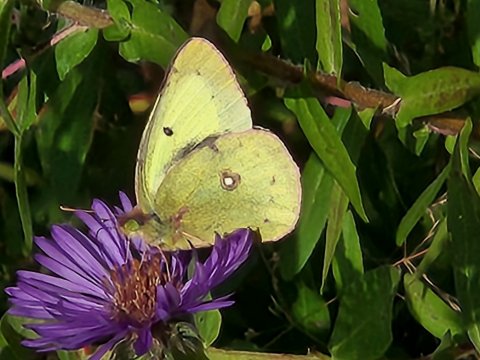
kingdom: Animalia
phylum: Arthropoda
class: Insecta
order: Lepidoptera
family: Pieridae
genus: Colias
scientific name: Colias philodice
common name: Clouded Sulphur
